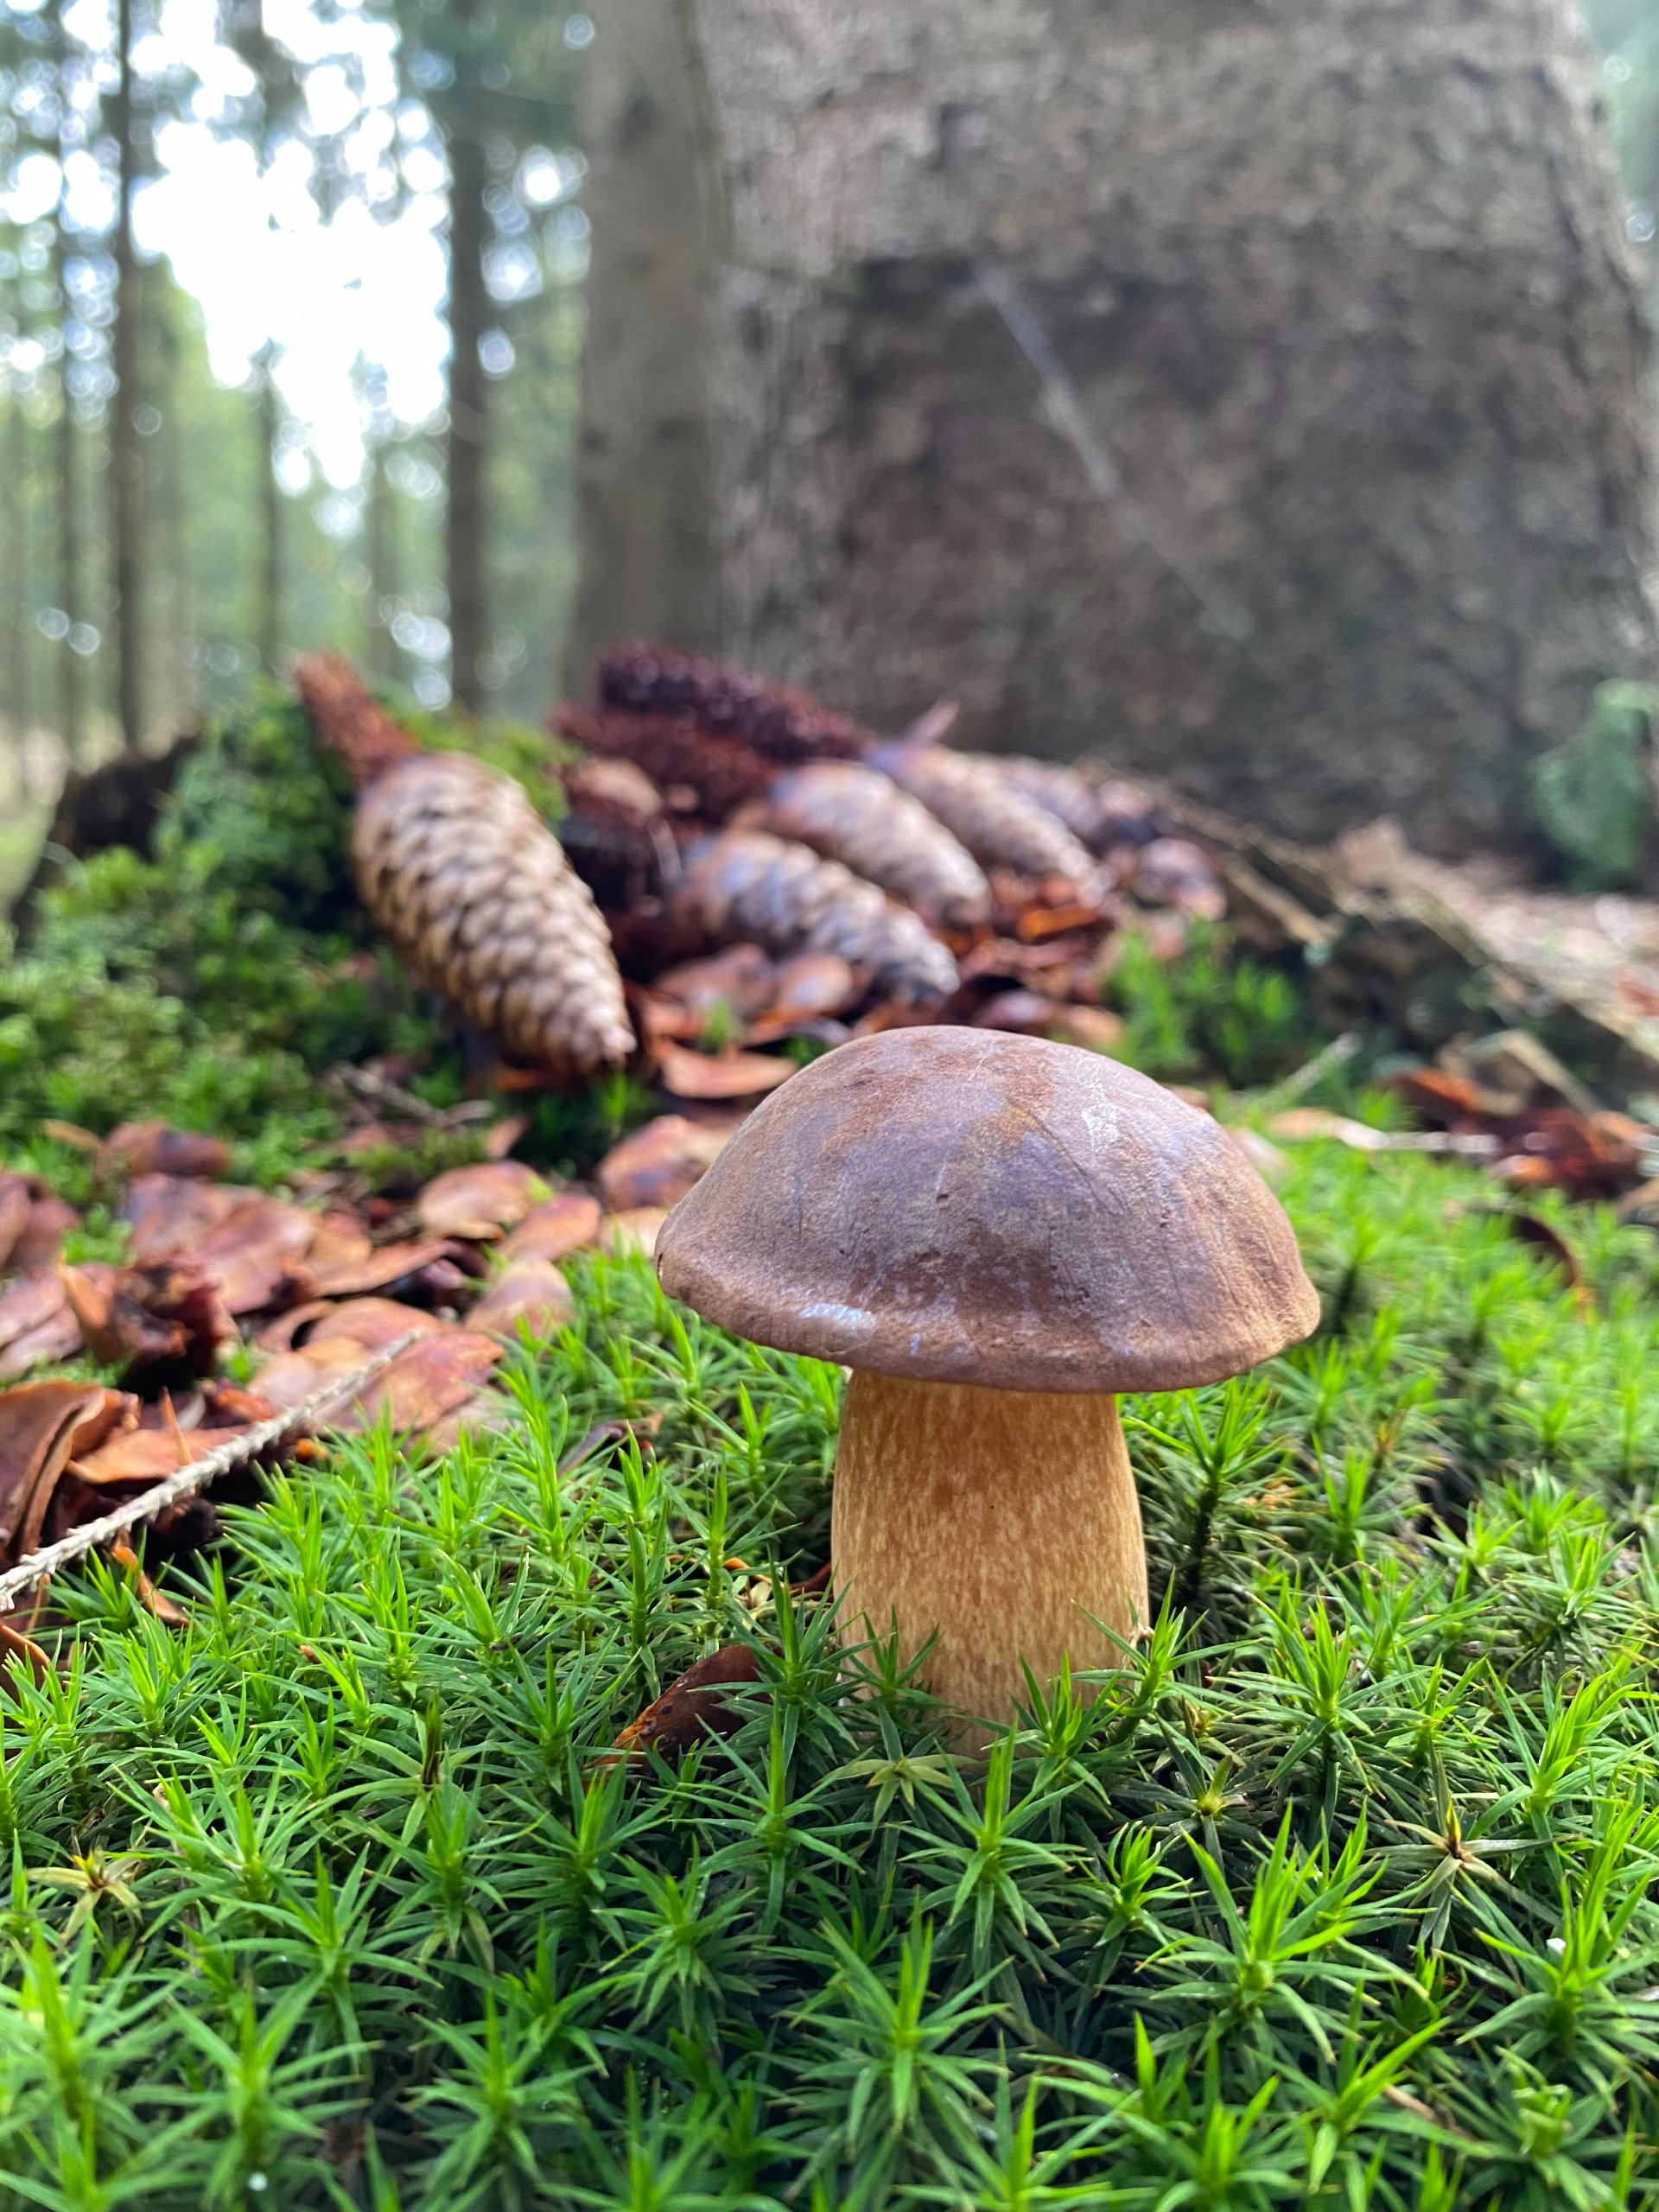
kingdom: Fungi
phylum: Basidiomycota
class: Agaricomycetes
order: Boletales
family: Boletaceae
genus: Imleria
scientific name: Imleria badia
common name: Brunstokket rørhat
